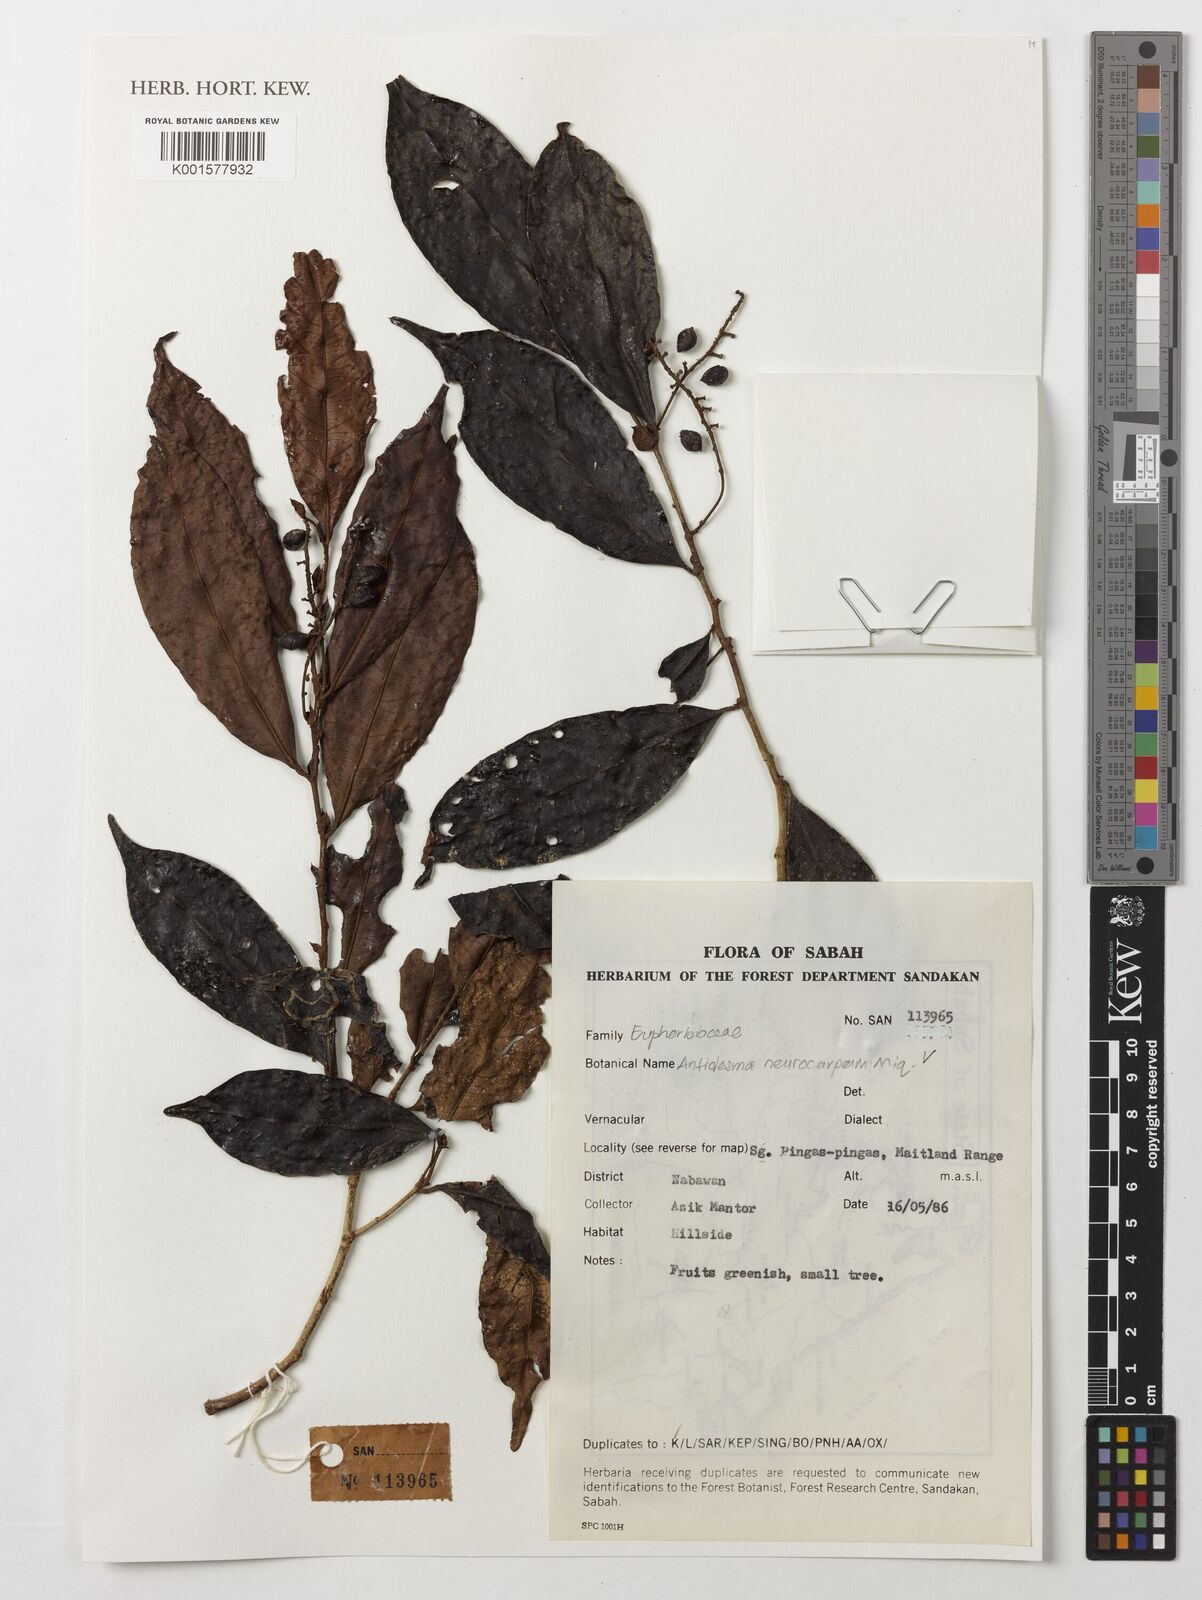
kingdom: Plantae
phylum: Tracheophyta
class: Magnoliopsida
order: Malpighiales
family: Phyllanthaceae
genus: Antidesma
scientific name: Antidesma neurocarpum
